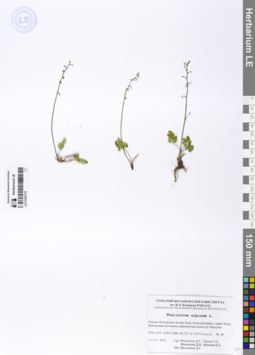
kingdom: Plantae
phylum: Tracheophyta
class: Magnoliopsida
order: Ranunculales
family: Ranunculaceae
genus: Thalictrum
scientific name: Thalictrum alpinum
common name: Alpine meadow-rue
